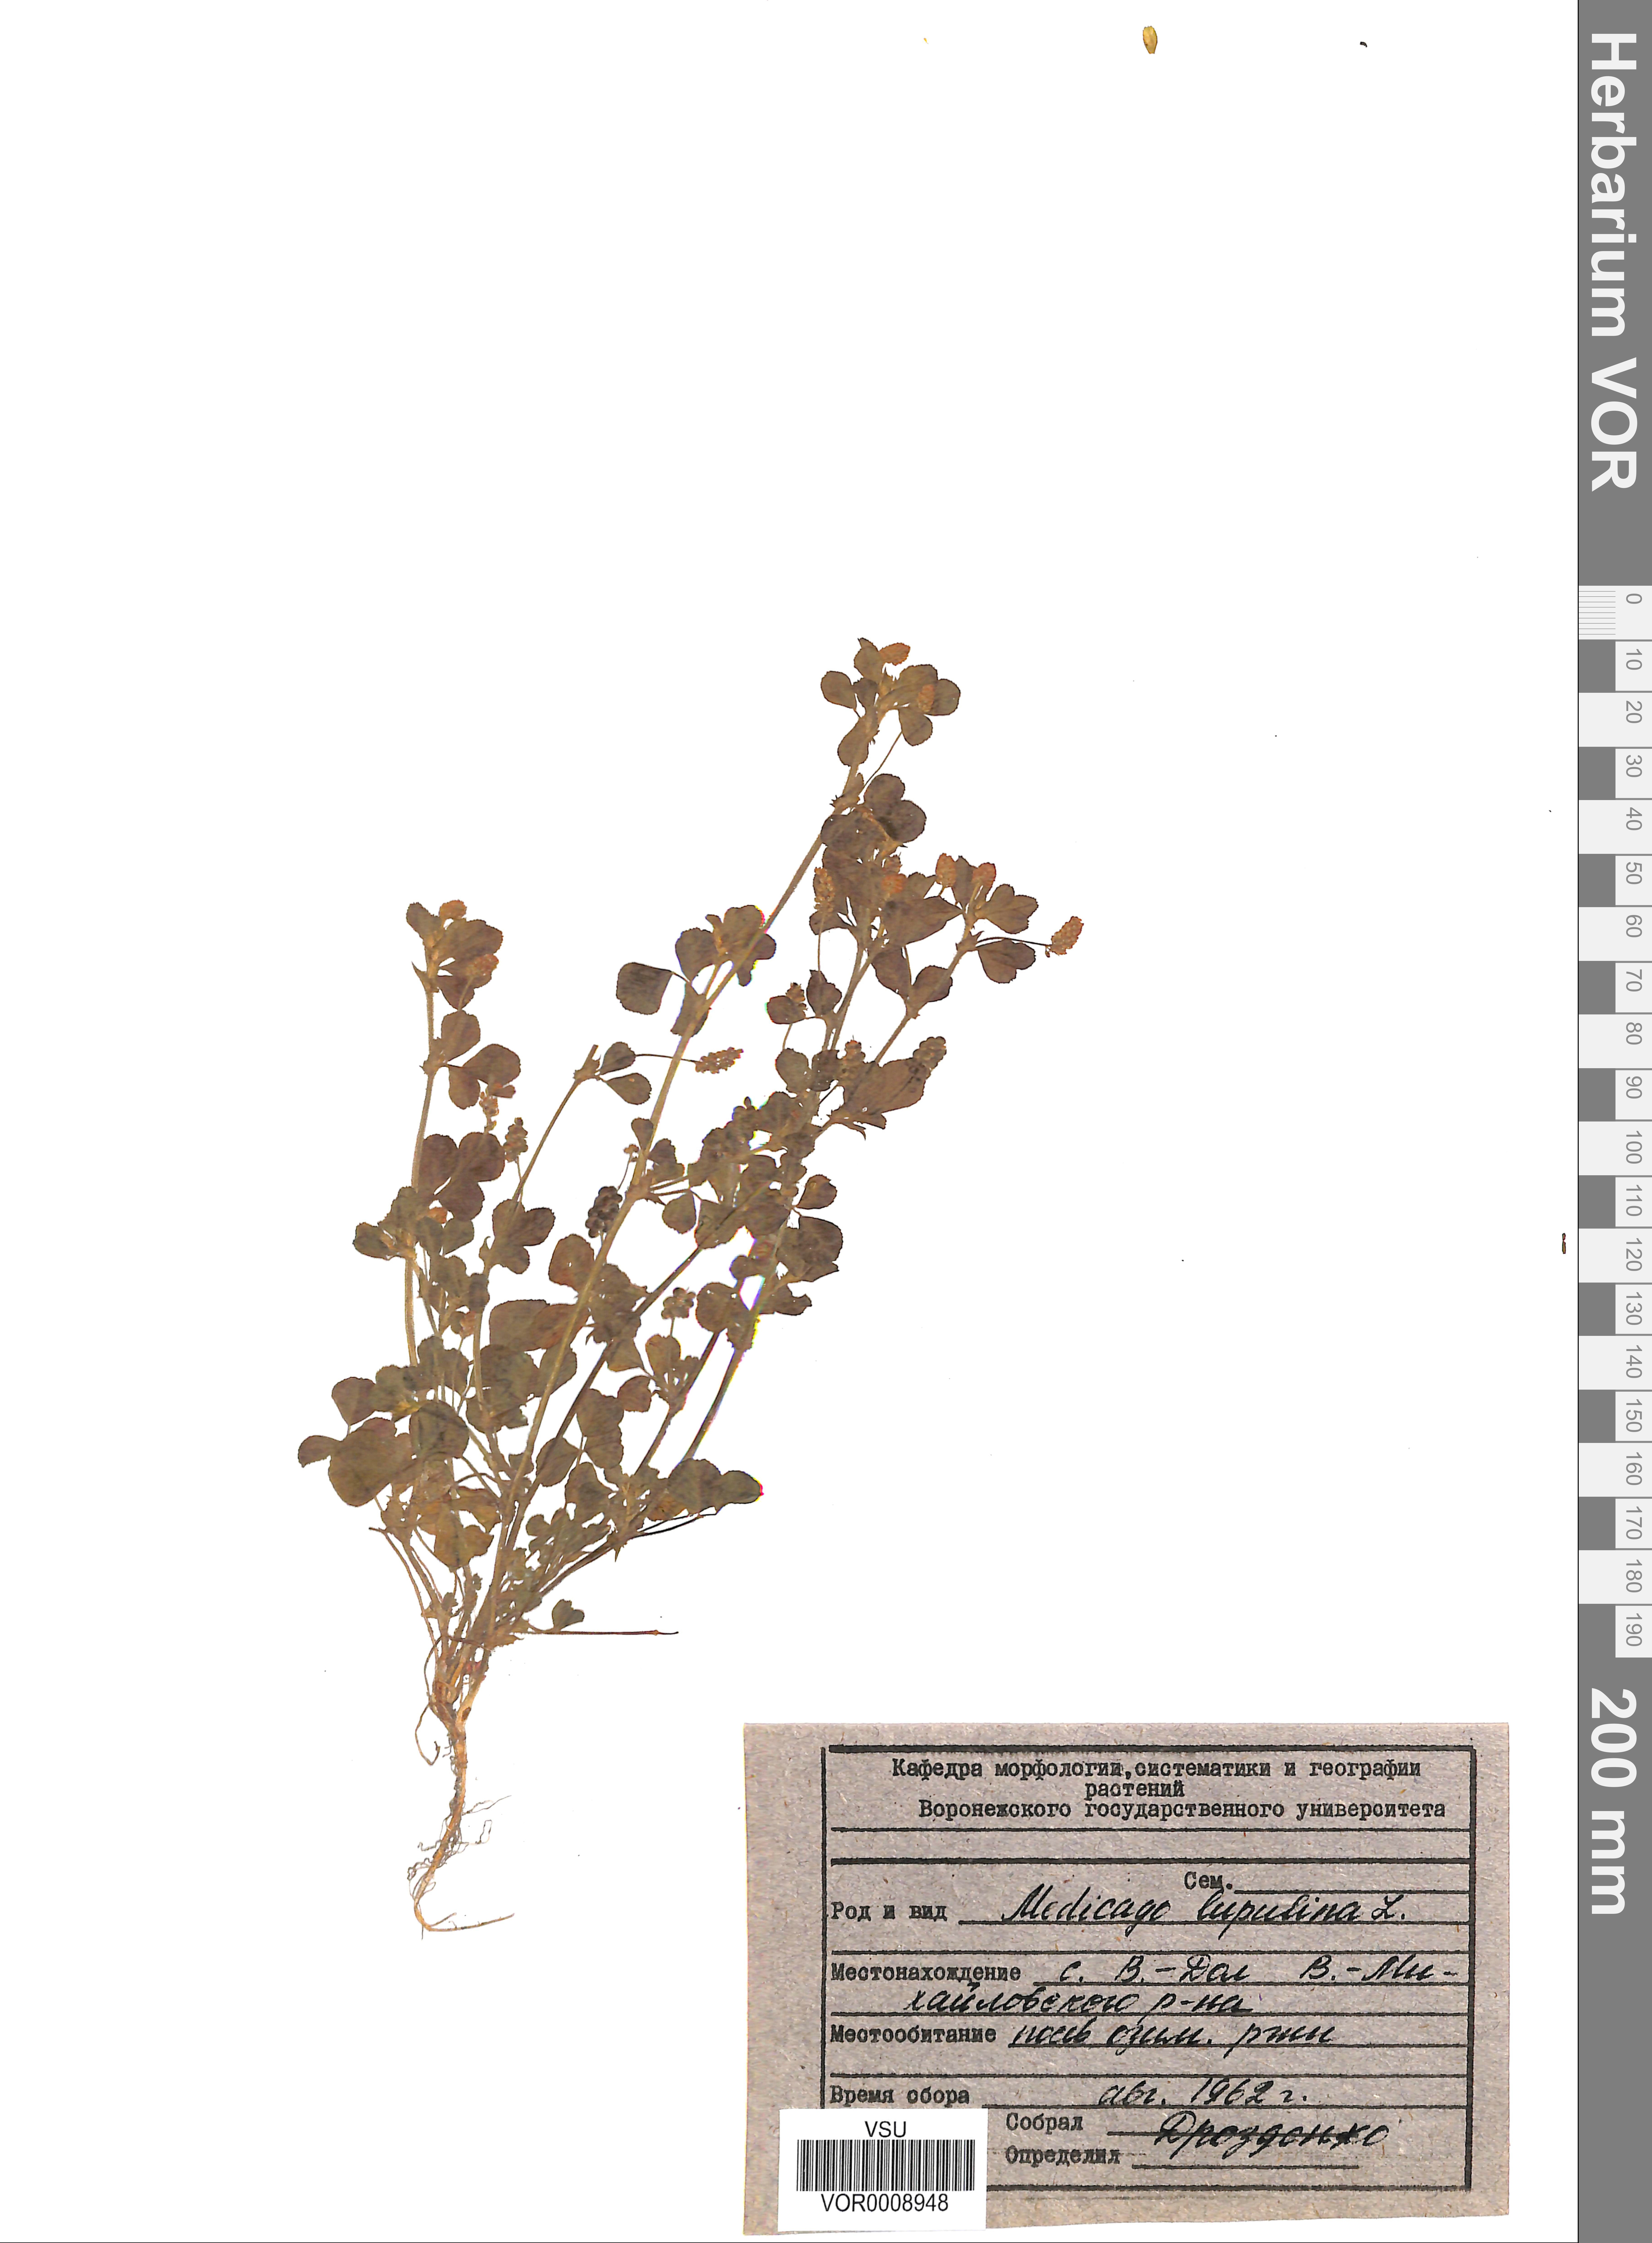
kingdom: Plantae
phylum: Tracheophyta
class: Magnoliopsida
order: Fabales
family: Fabaceae
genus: Medicago
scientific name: Medicago lupulina
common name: Black medick
